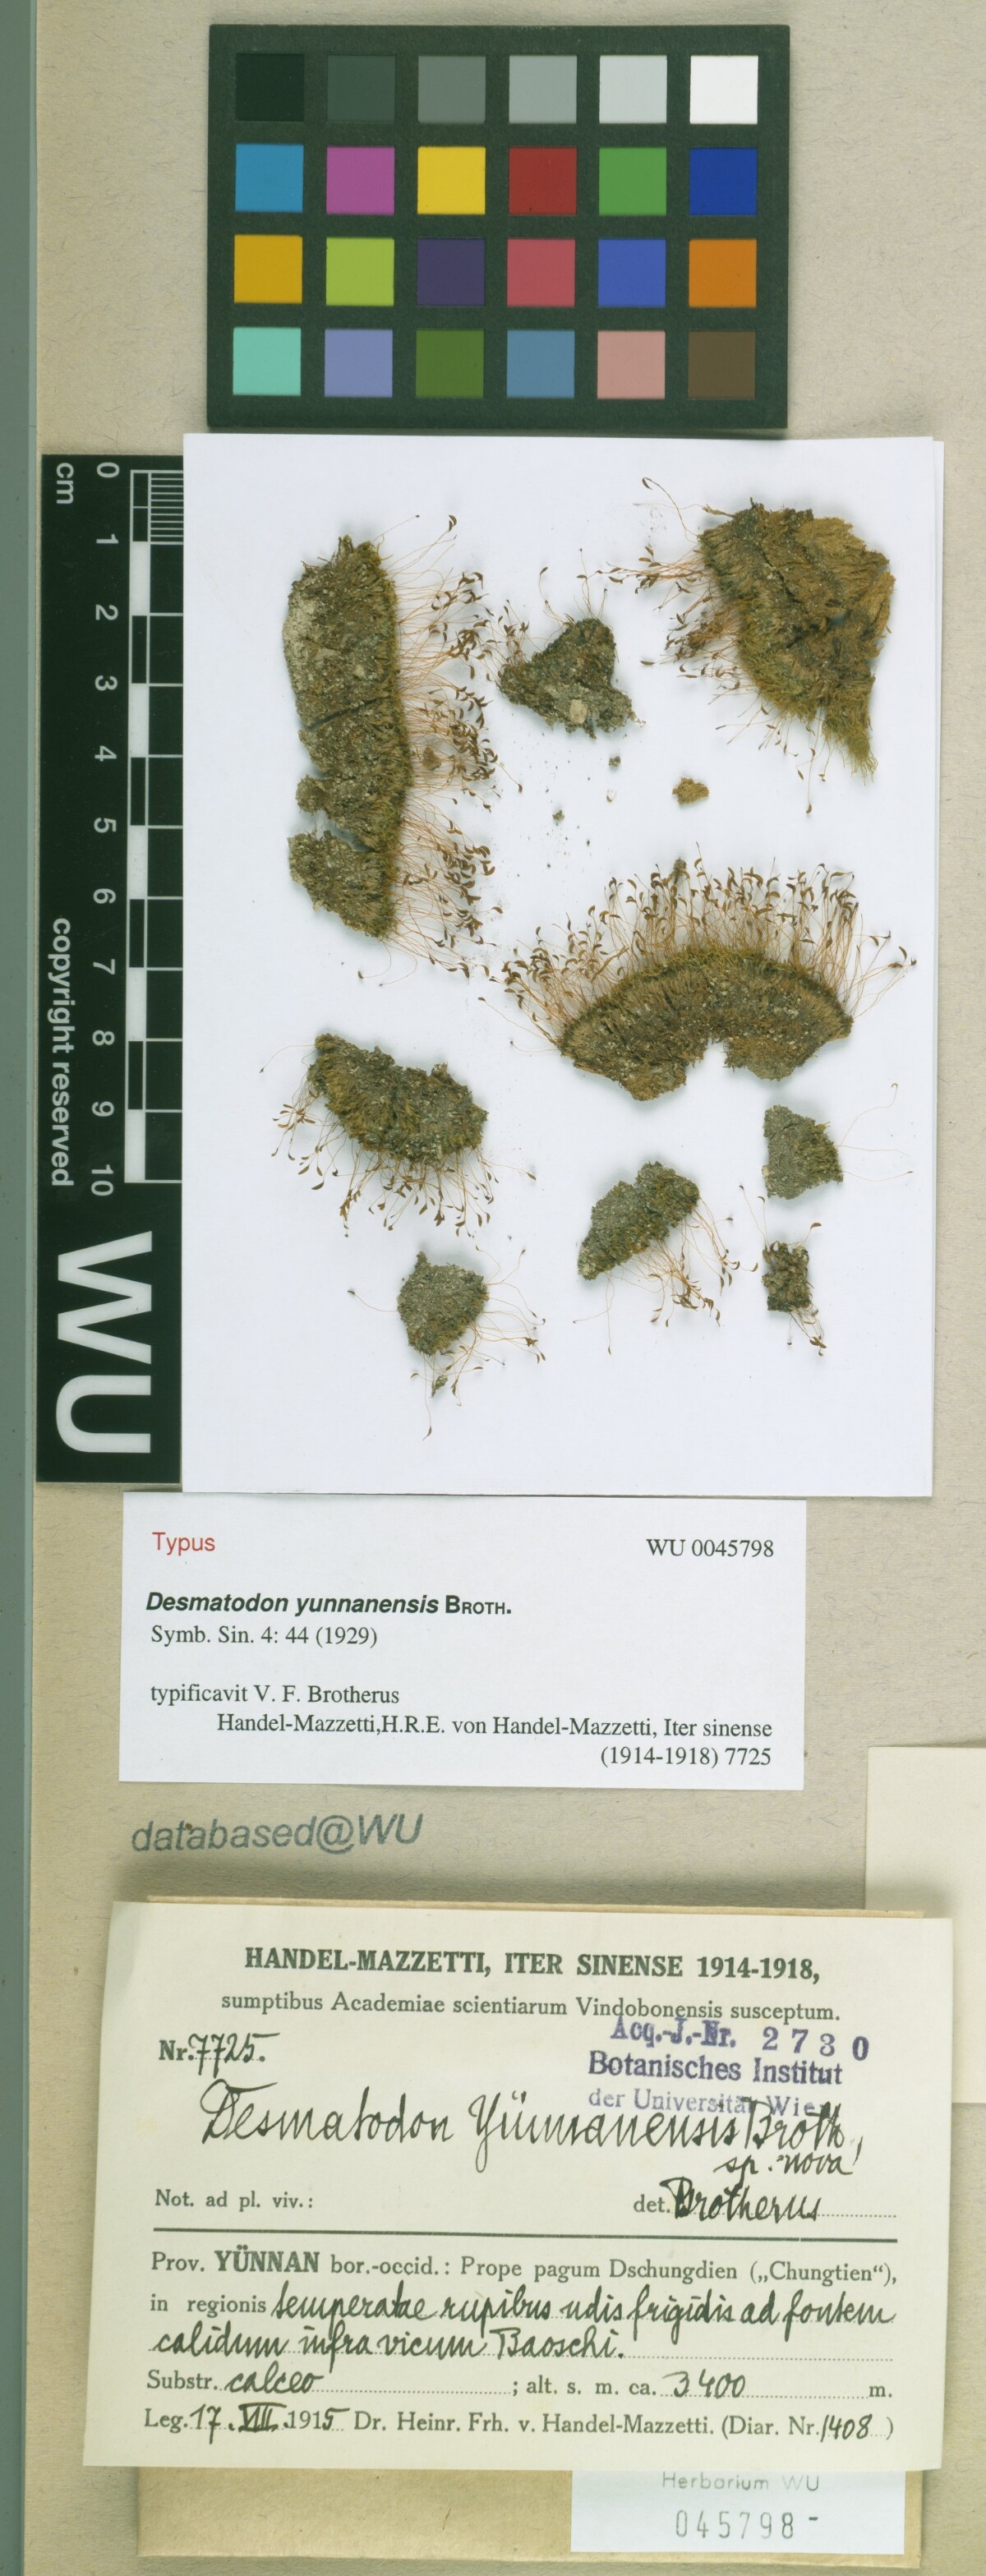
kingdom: Animalia
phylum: Chordata
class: Amphibia
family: Diadectidae
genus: Desmatodon
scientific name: Desmatodon
